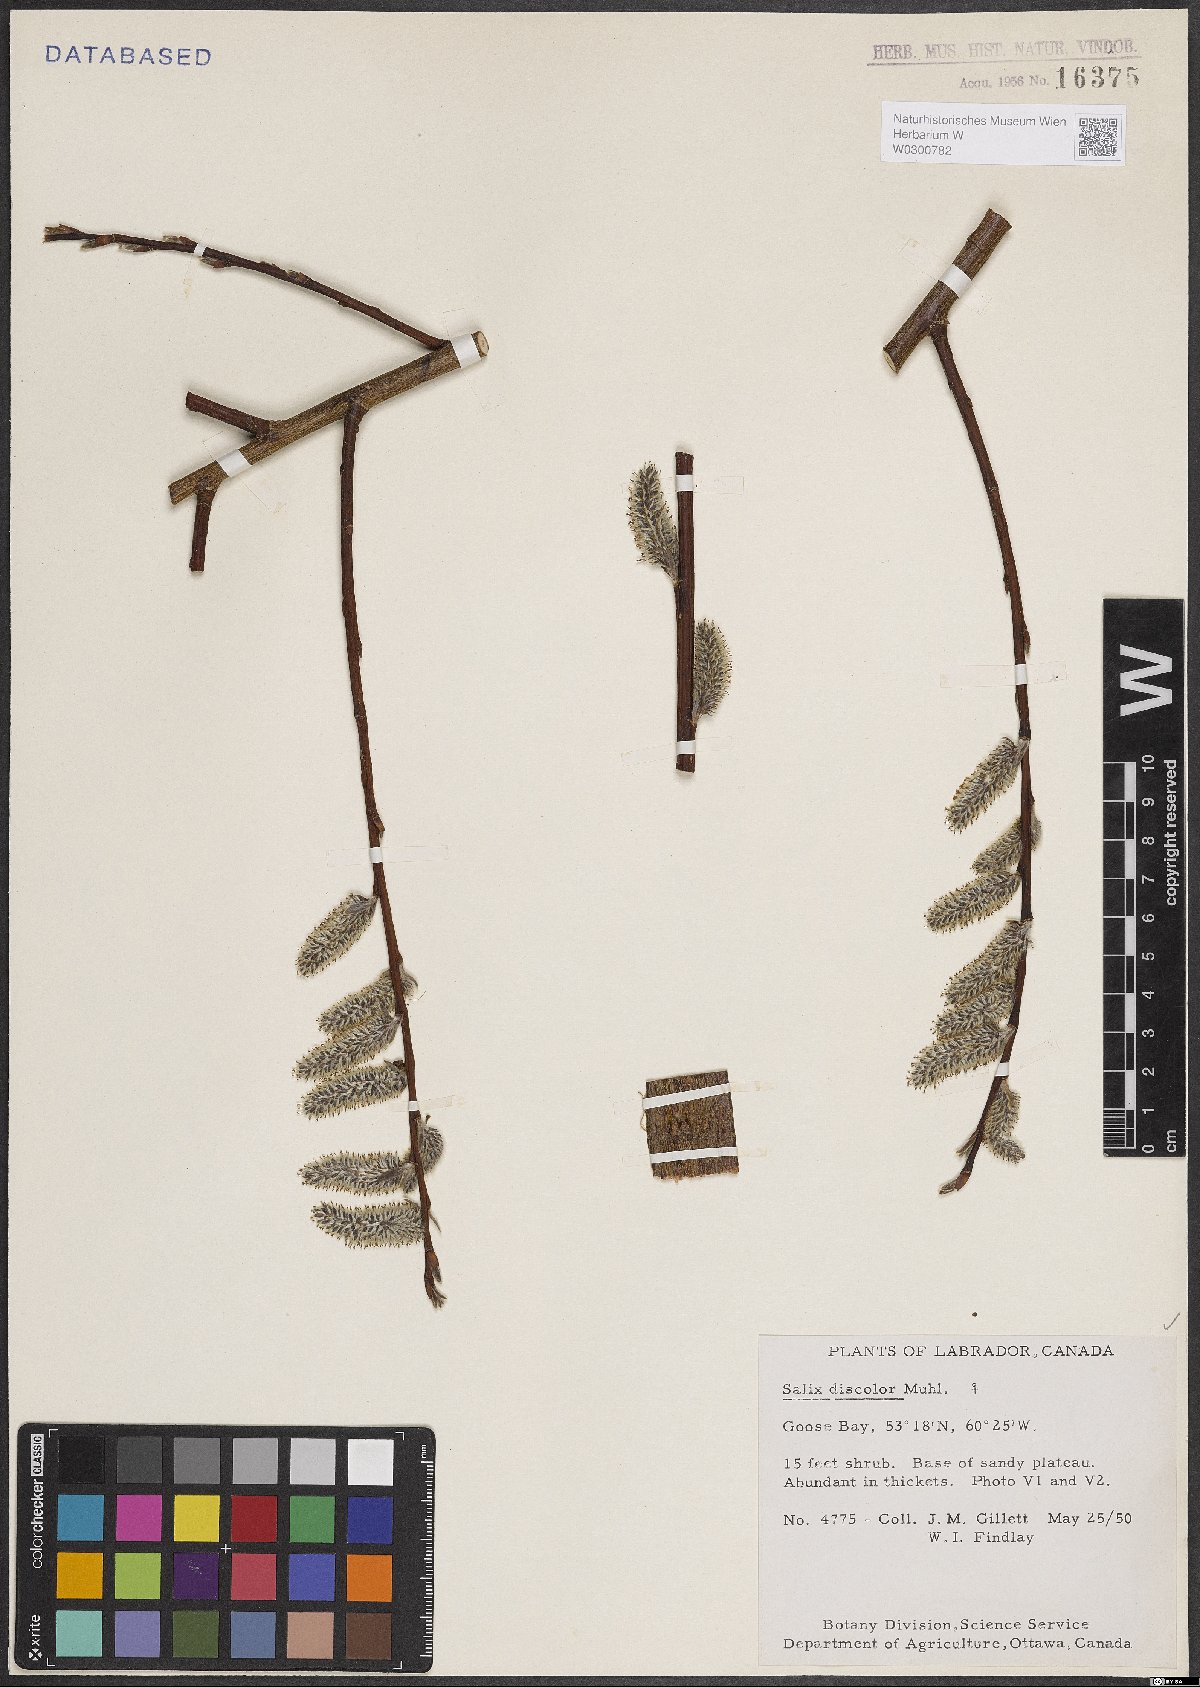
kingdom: Plantae
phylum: Tracheophyta
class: Magnoliopsida
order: Malpighiales
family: Salicaceae
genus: Salix
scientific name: Salix discolor
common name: Glaucous willow
